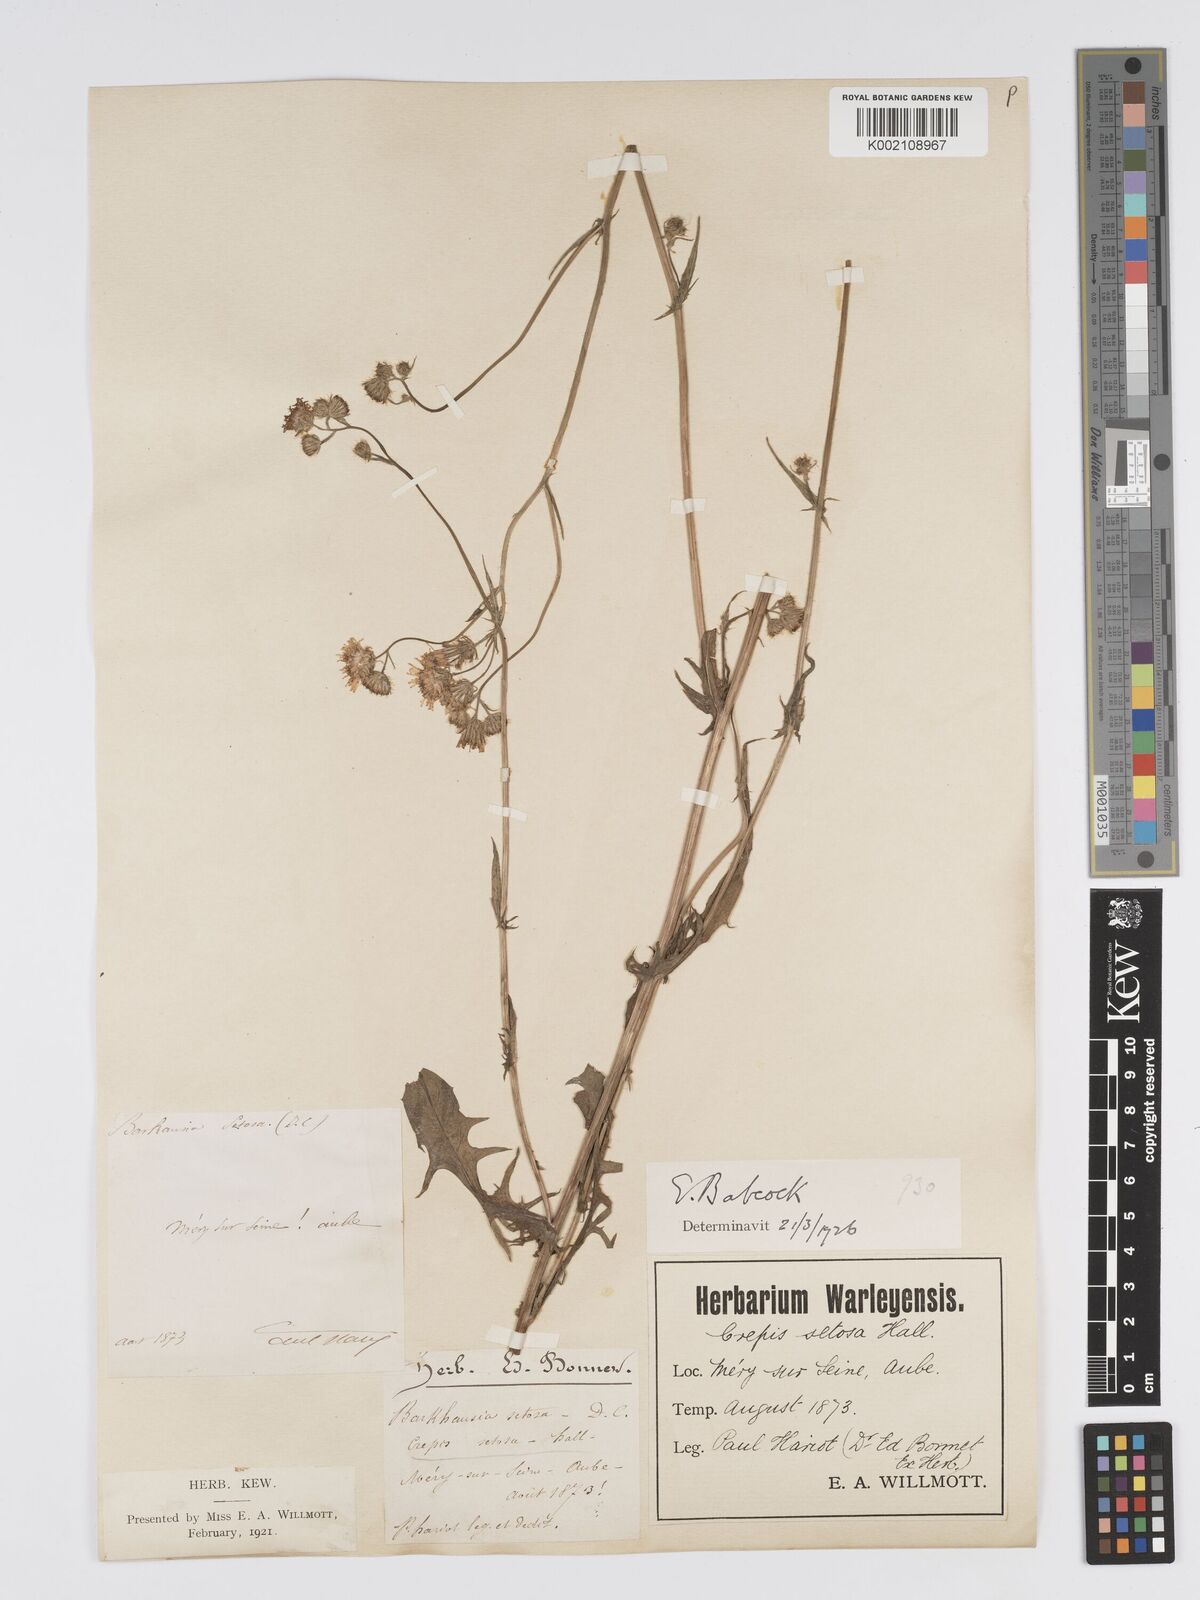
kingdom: Plantae
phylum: Tracheophyta
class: Magnoliopsida
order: Asterales
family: Asteraceae
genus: Crepis
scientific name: Crepis setosa
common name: Bristly hawk's-beard
